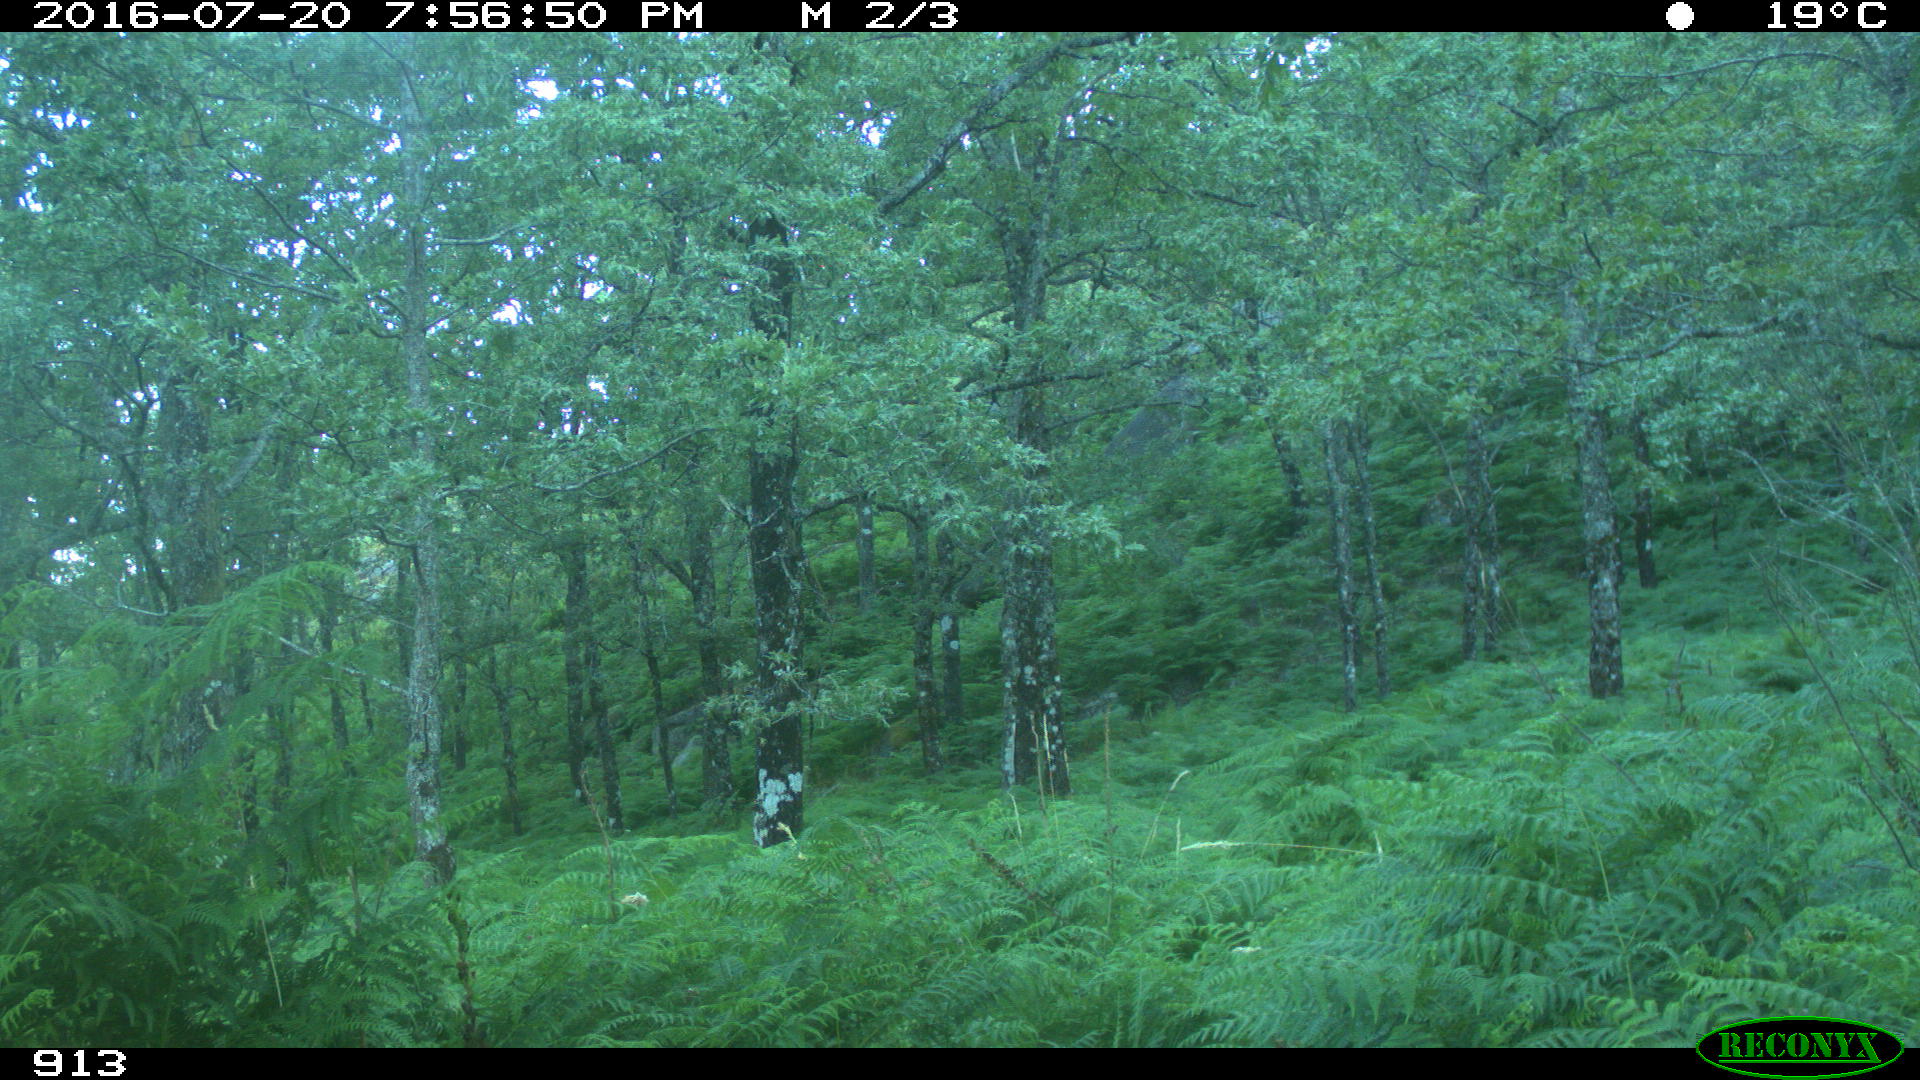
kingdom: Animalia
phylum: Chordata
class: Mammalia
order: Artiodactyla
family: Bovidae
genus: Bos
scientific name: Bos taurus
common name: Domesticated cattle
